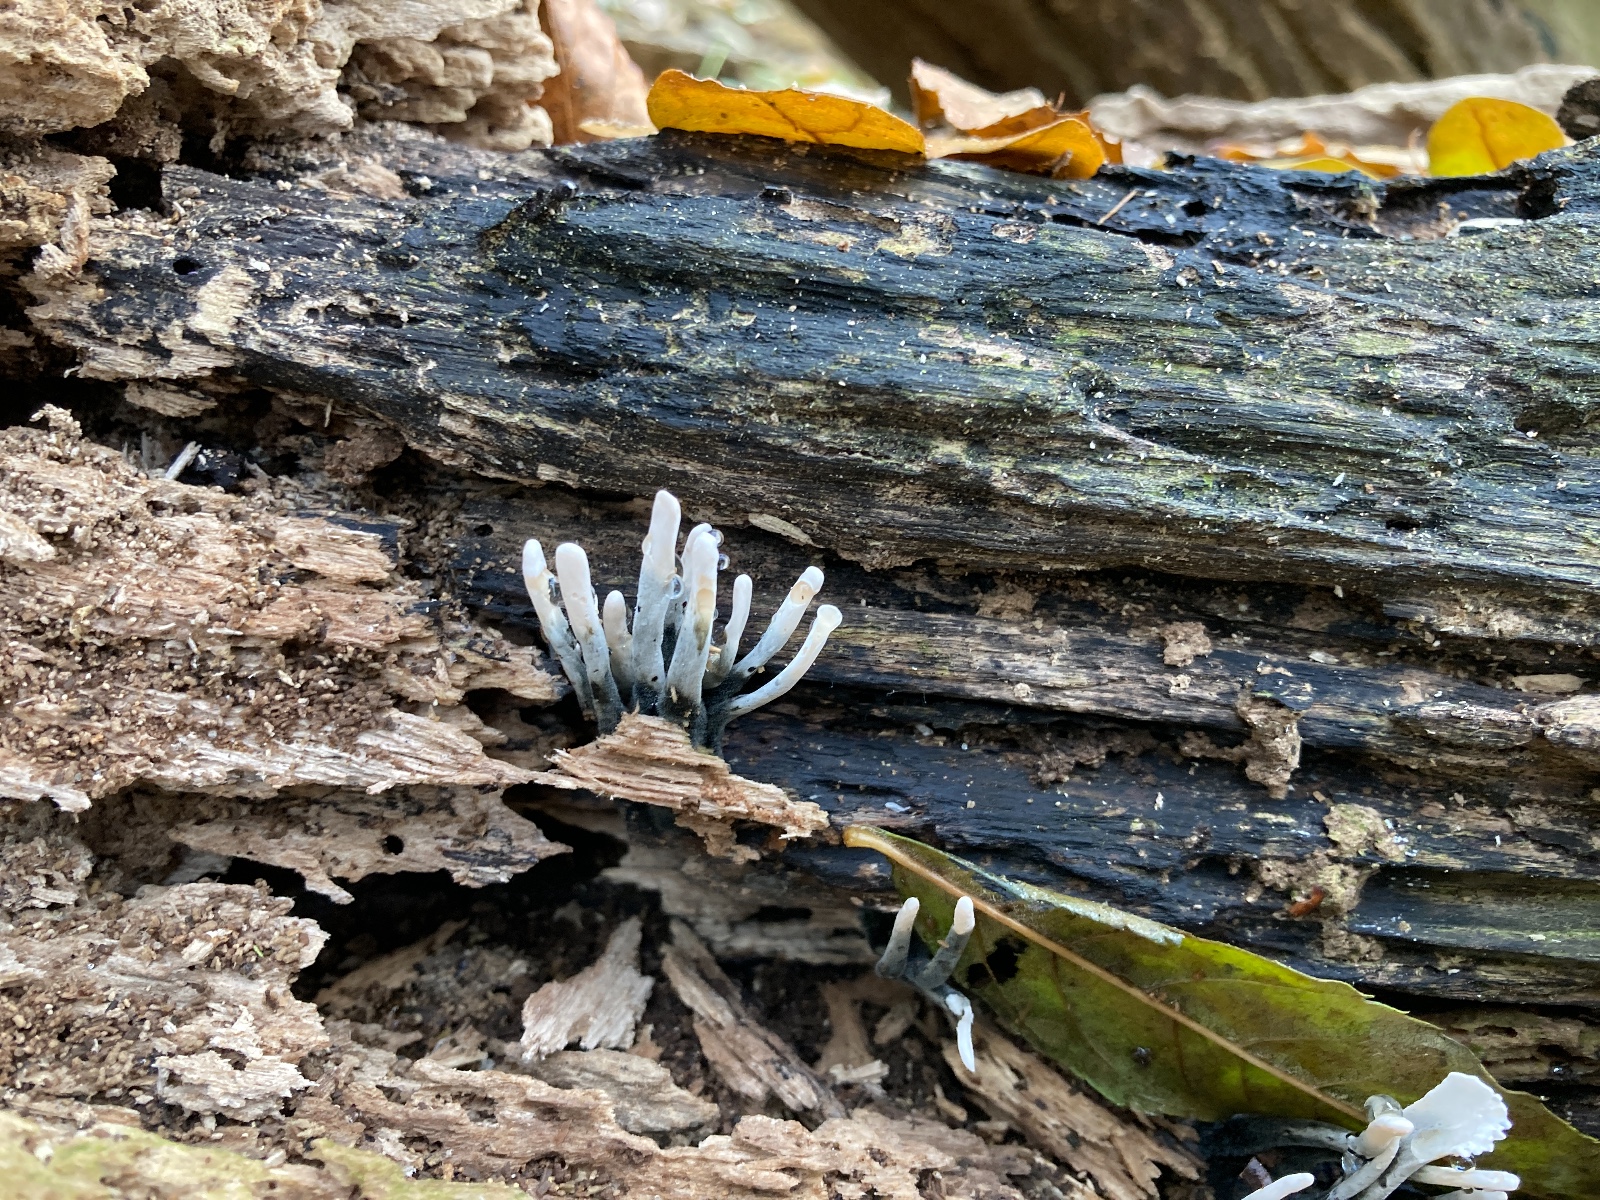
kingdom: Fungi
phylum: Ascomycota
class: Sordariomycetes
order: Xylariales
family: Xylariaceae
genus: Xylaria
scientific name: Xylaria hypoxylon
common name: grenet stødsvamp
